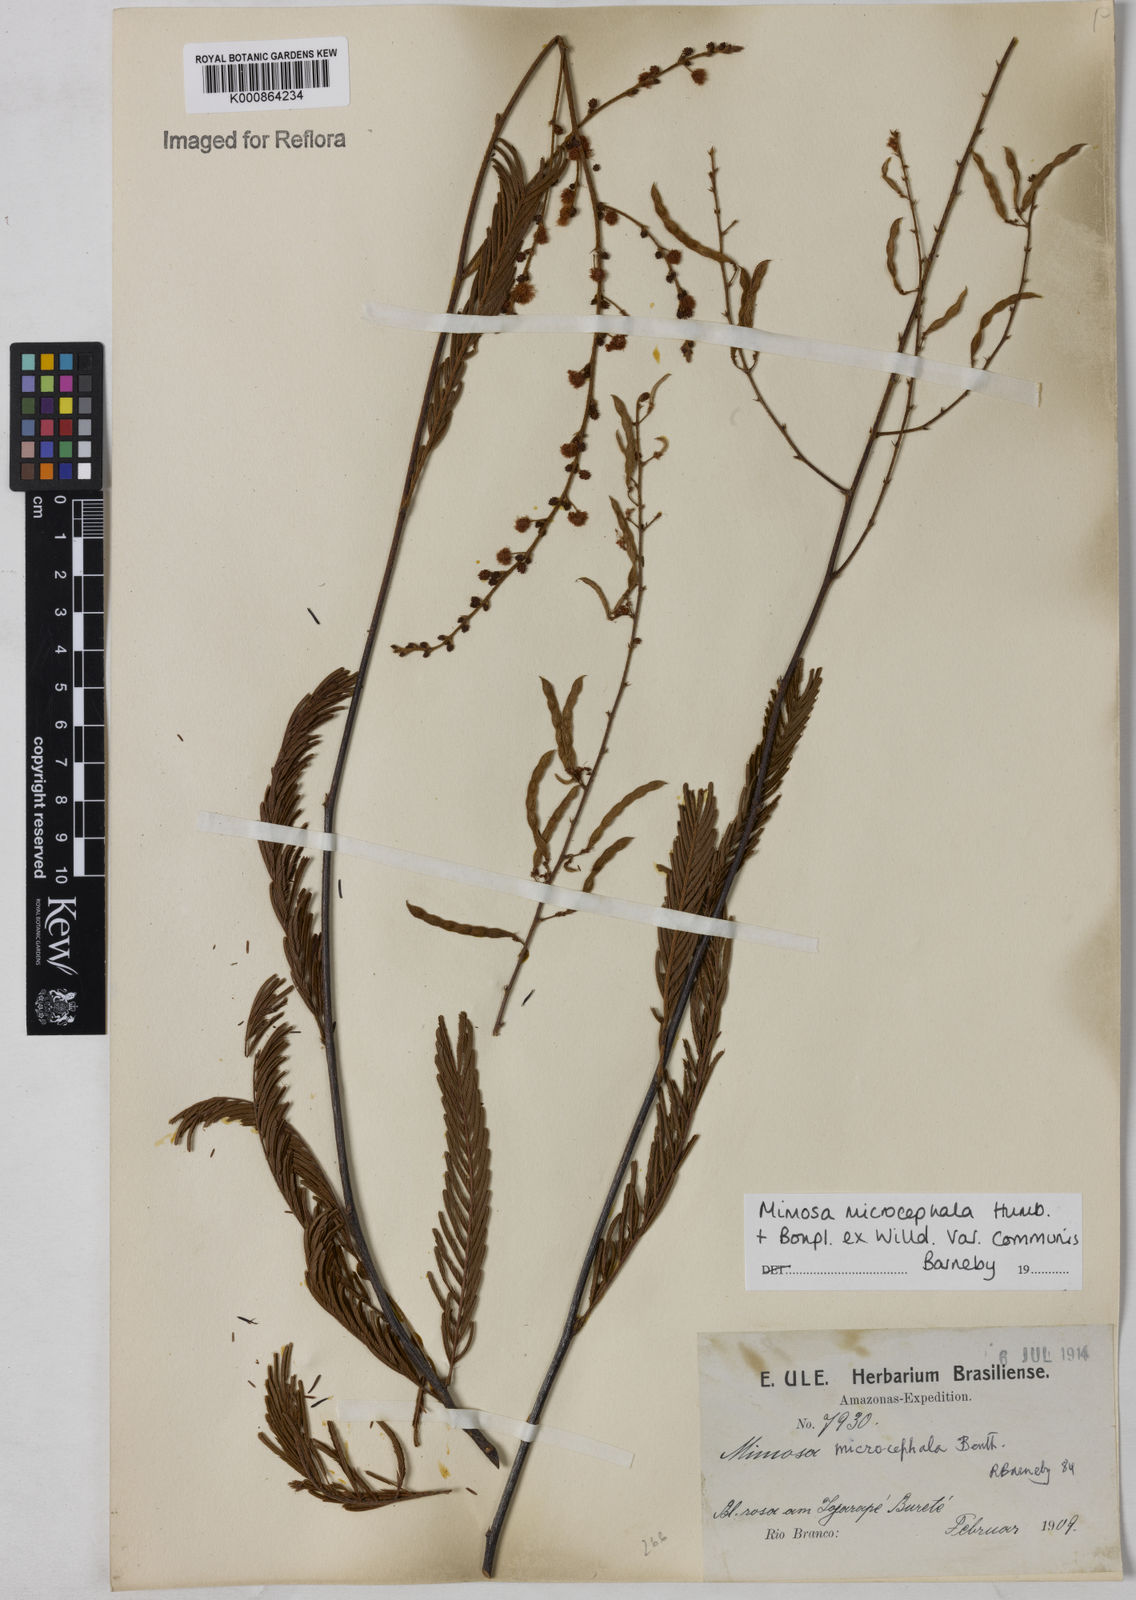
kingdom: Plantae
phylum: Tracheophyta
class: Magnoliopsida
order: Fabales
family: Fabaceae
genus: Mimosa
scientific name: Mimosa microcephala
